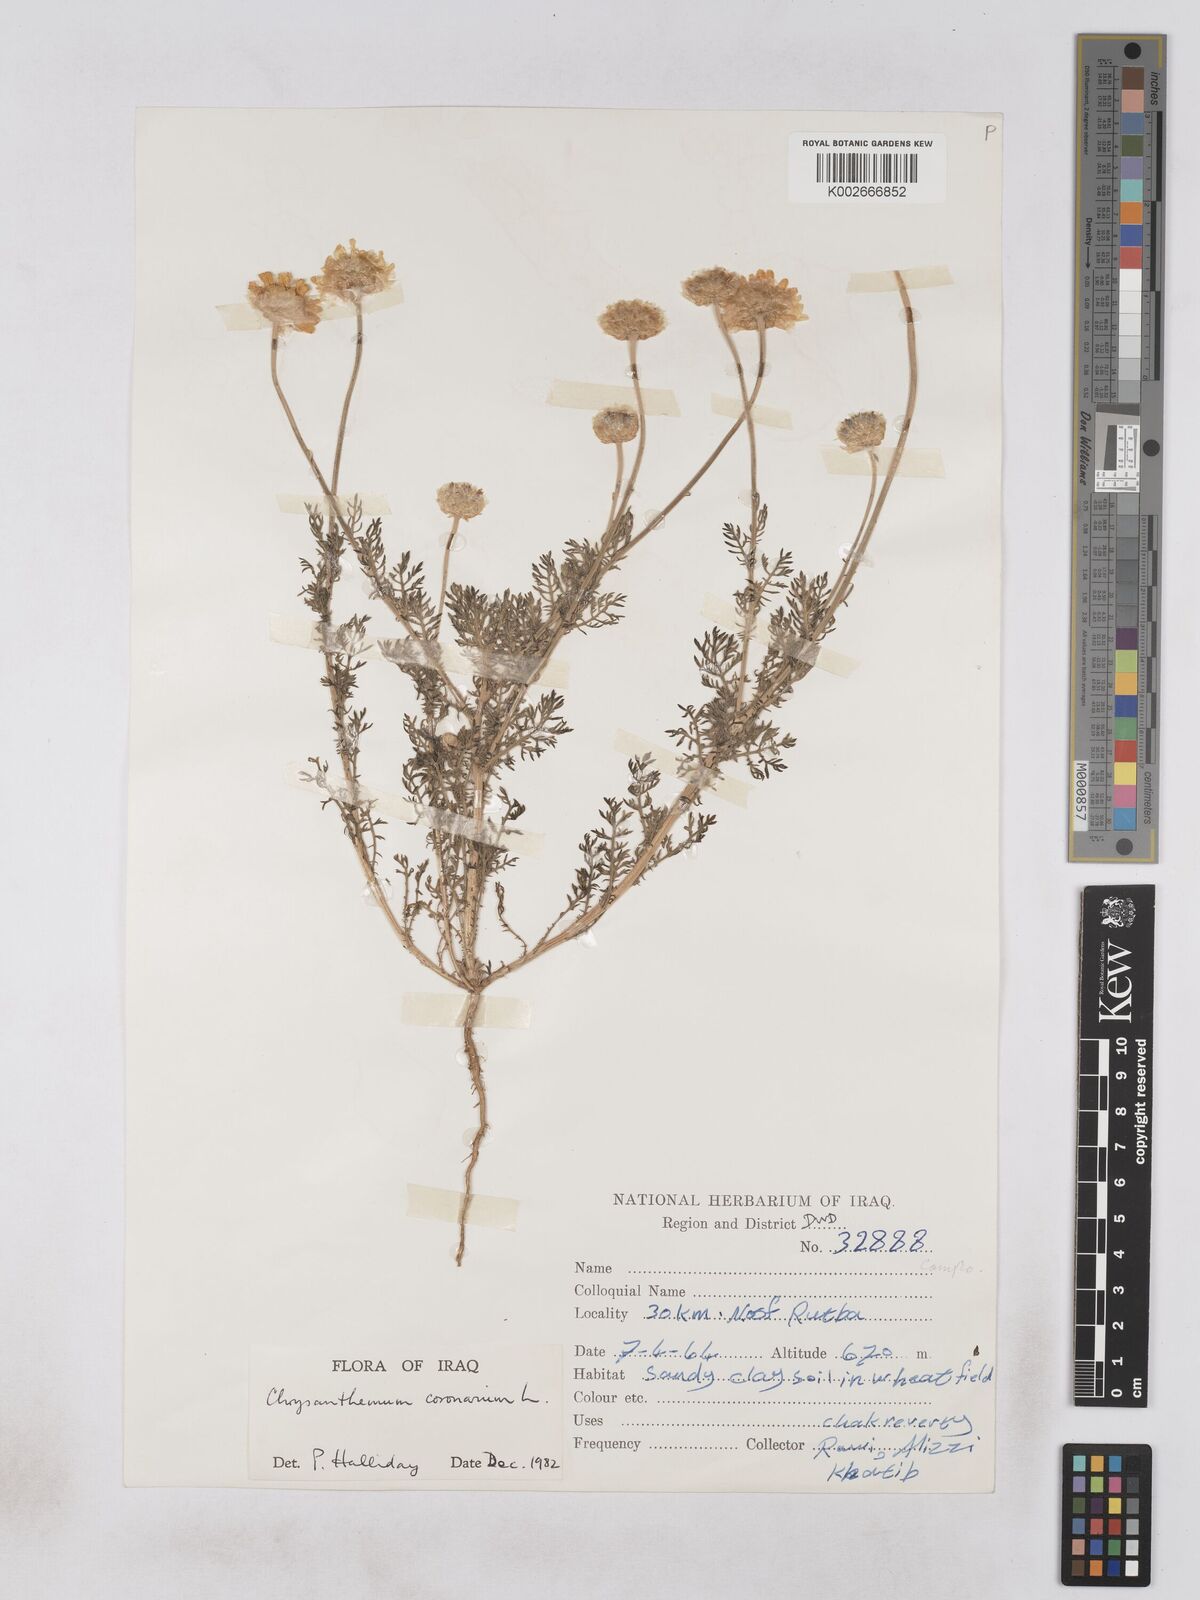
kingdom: Plantae
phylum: Tracheophyta
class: Magnoliopsida
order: Asterales
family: Asteraceae
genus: Glebionis
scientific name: Glebionis coronaria
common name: Crowndaisy
